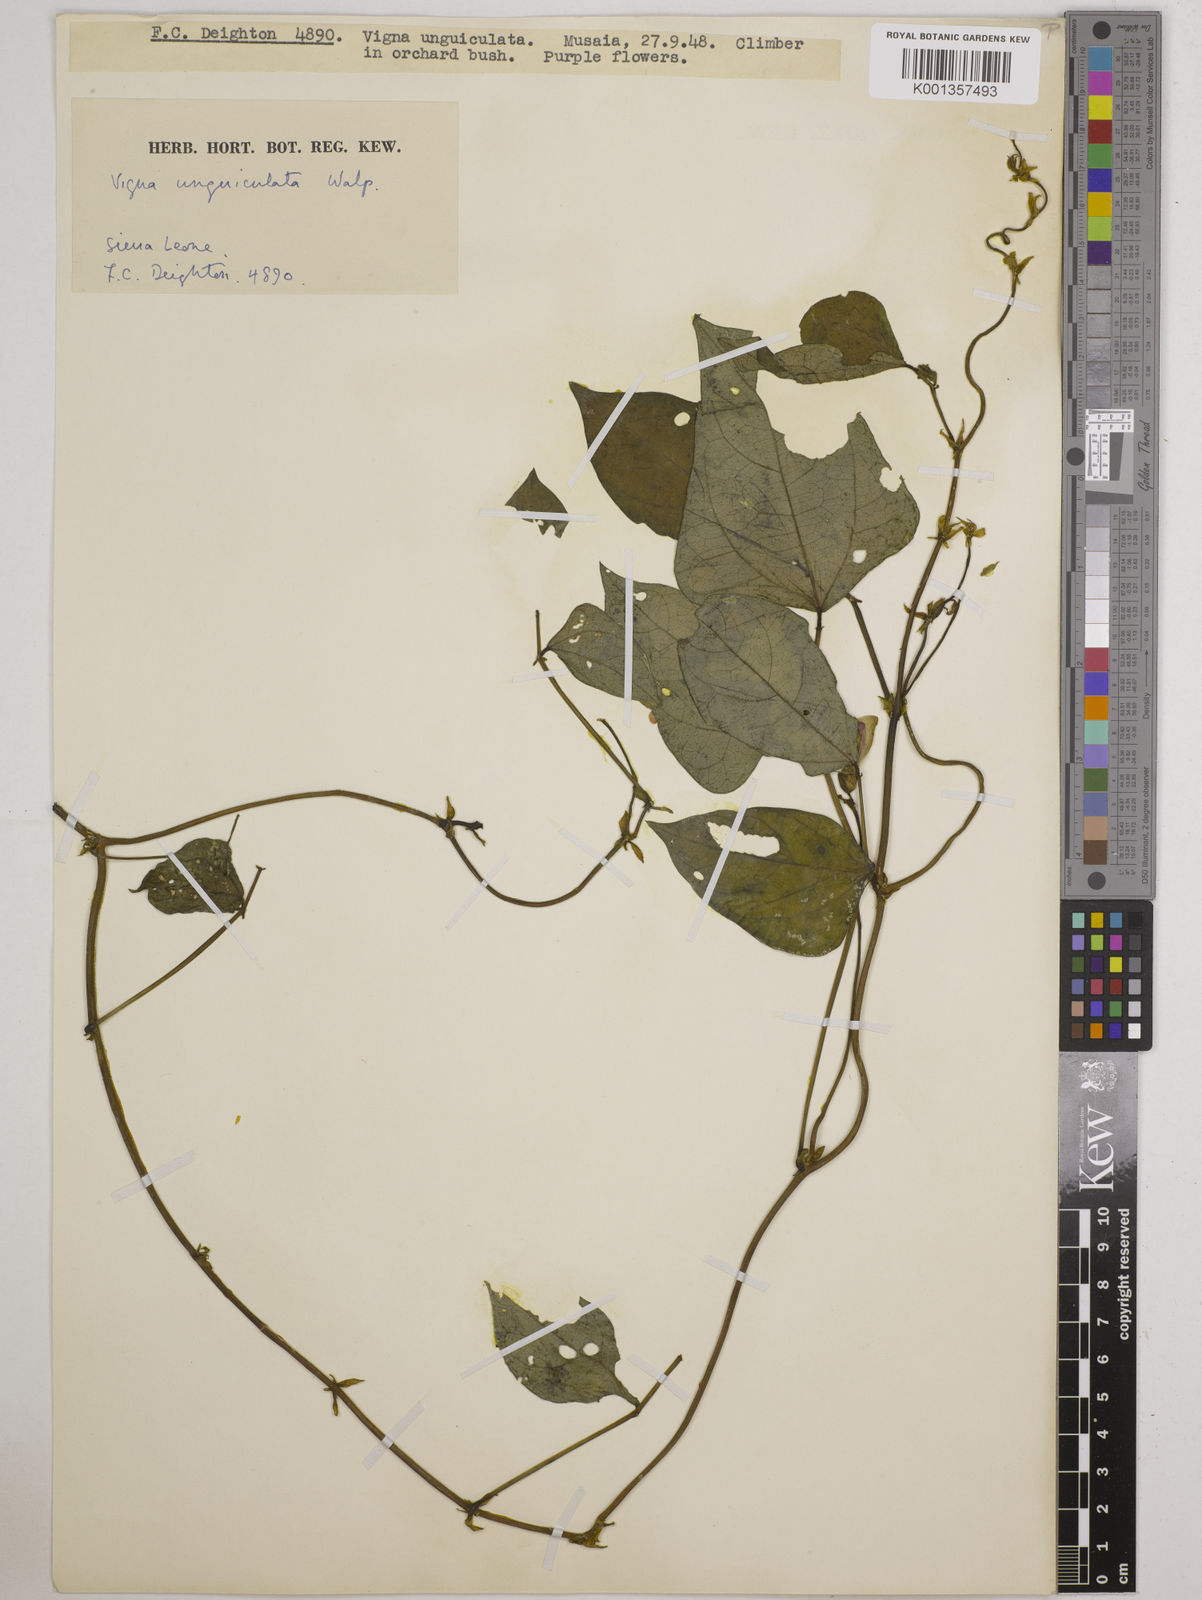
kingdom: Plantae
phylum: Tracheophyta
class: Magnoliopsida
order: Fabales
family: Fabaceae
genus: Vigna
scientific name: Vigna
